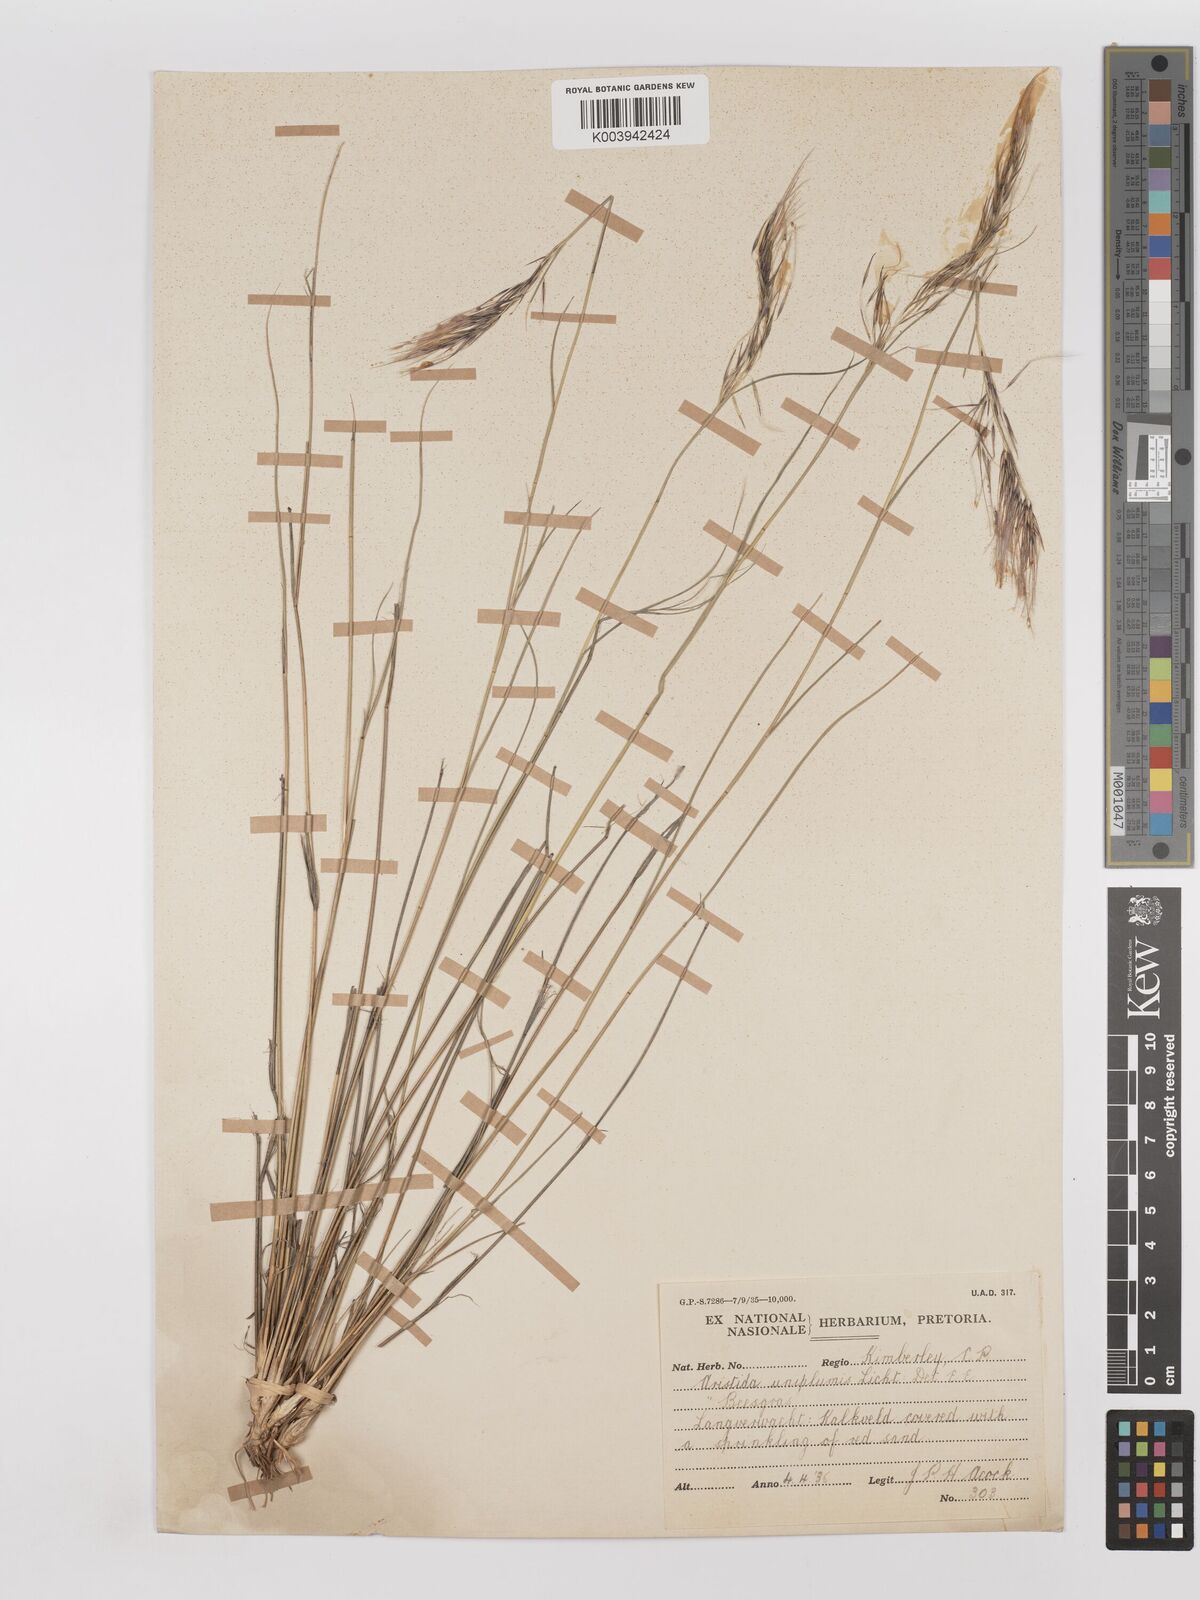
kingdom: Plantae
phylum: Tracheophyta
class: Liliopsida
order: Poales
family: Poaceae
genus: Stipagrostis
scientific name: Stipagrostis uniplumis
